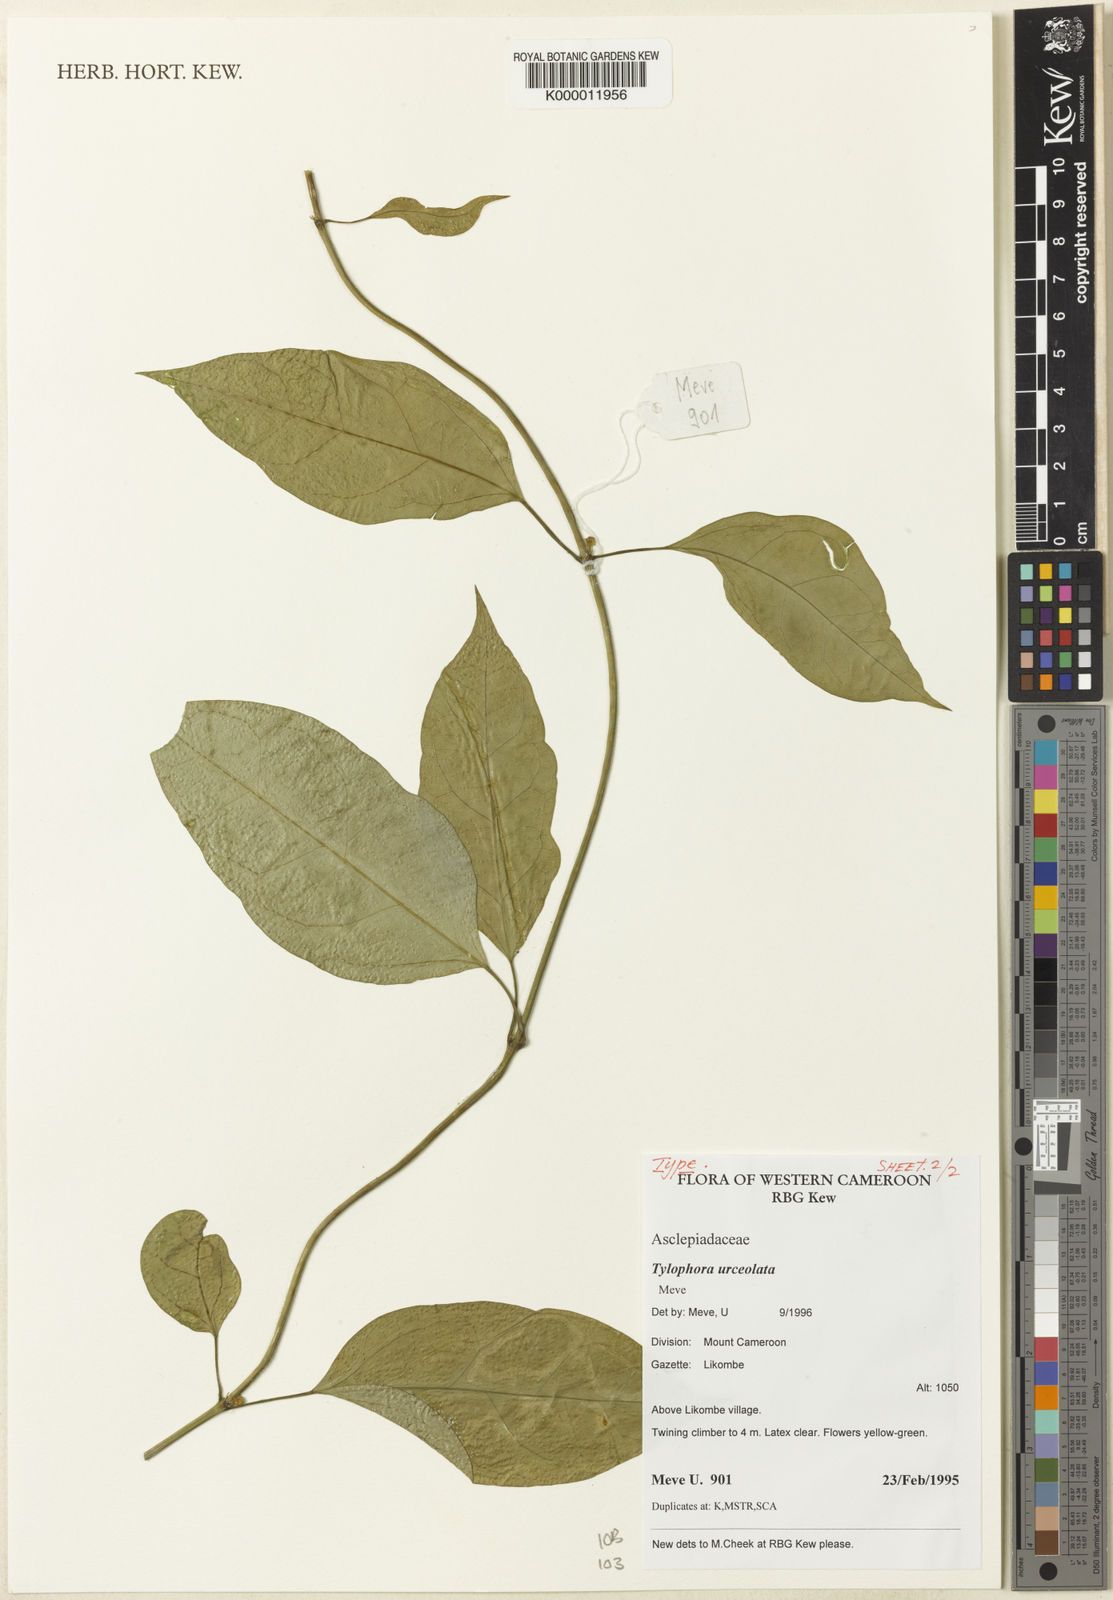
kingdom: Plantae
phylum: Tracheophyta
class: Magnoliopsida
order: Gentianales
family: Apocynaceae
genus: Vincetoxicum
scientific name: Vincetoxicum anomalum
